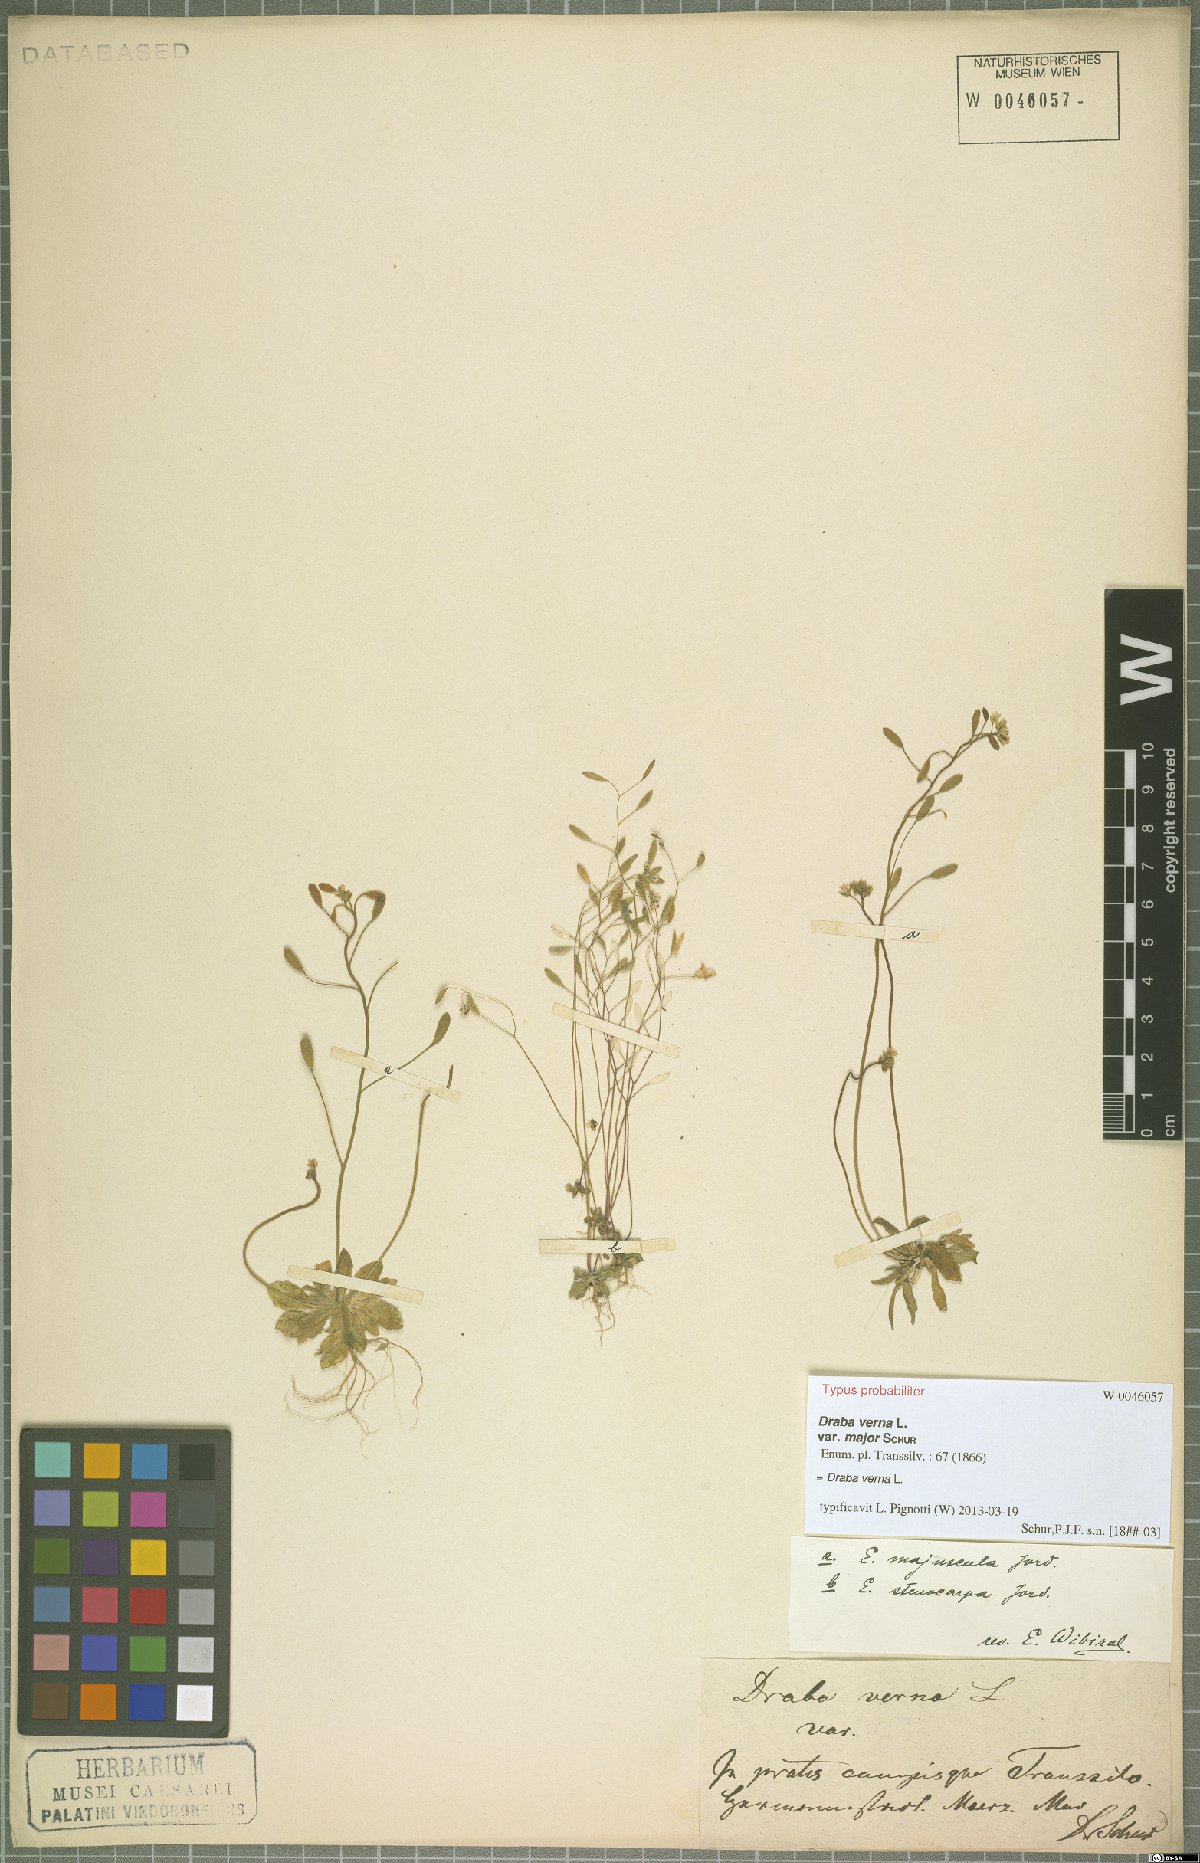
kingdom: Plantae
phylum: Tracheophyta
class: Magnoliopsida
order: Brassicales
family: Brassicaceae
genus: Draba
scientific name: Draba verna
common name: Spring draba
